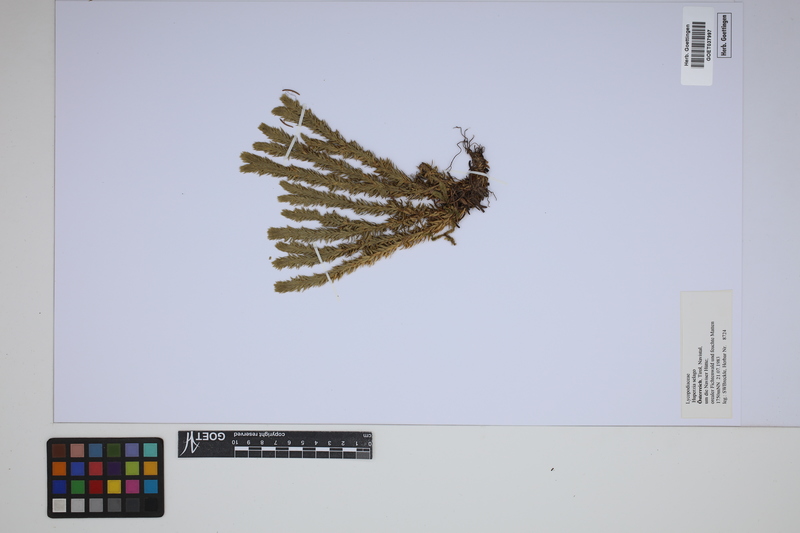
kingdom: Plantae
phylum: Tracheophyta
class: Lycopodiopsida
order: Lycopodiales
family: Lycopodiaceae
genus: Huperzia
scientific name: Huperzia selago
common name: Northern firmoss
